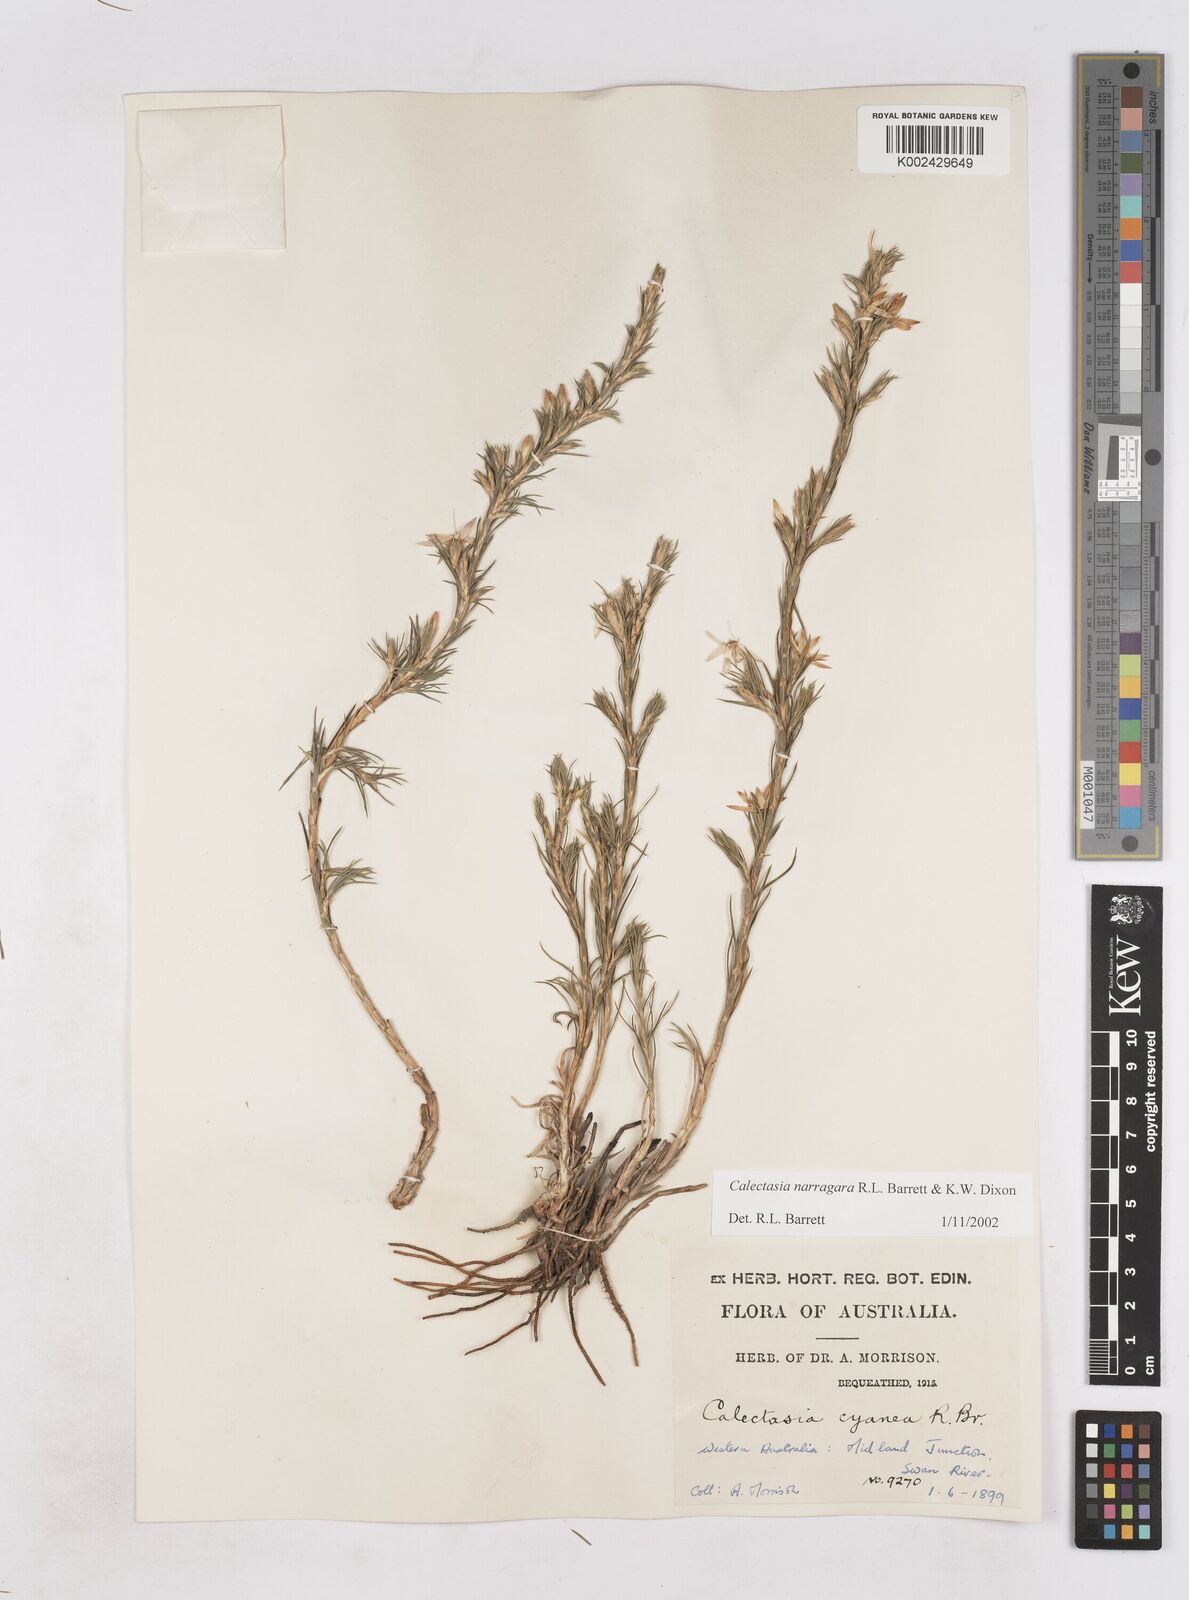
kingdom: Plantae
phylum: Tracheophyta
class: Liliopsida
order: Arecales
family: Dasypogonaceae
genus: Calectasia
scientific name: Calectasia narragara
